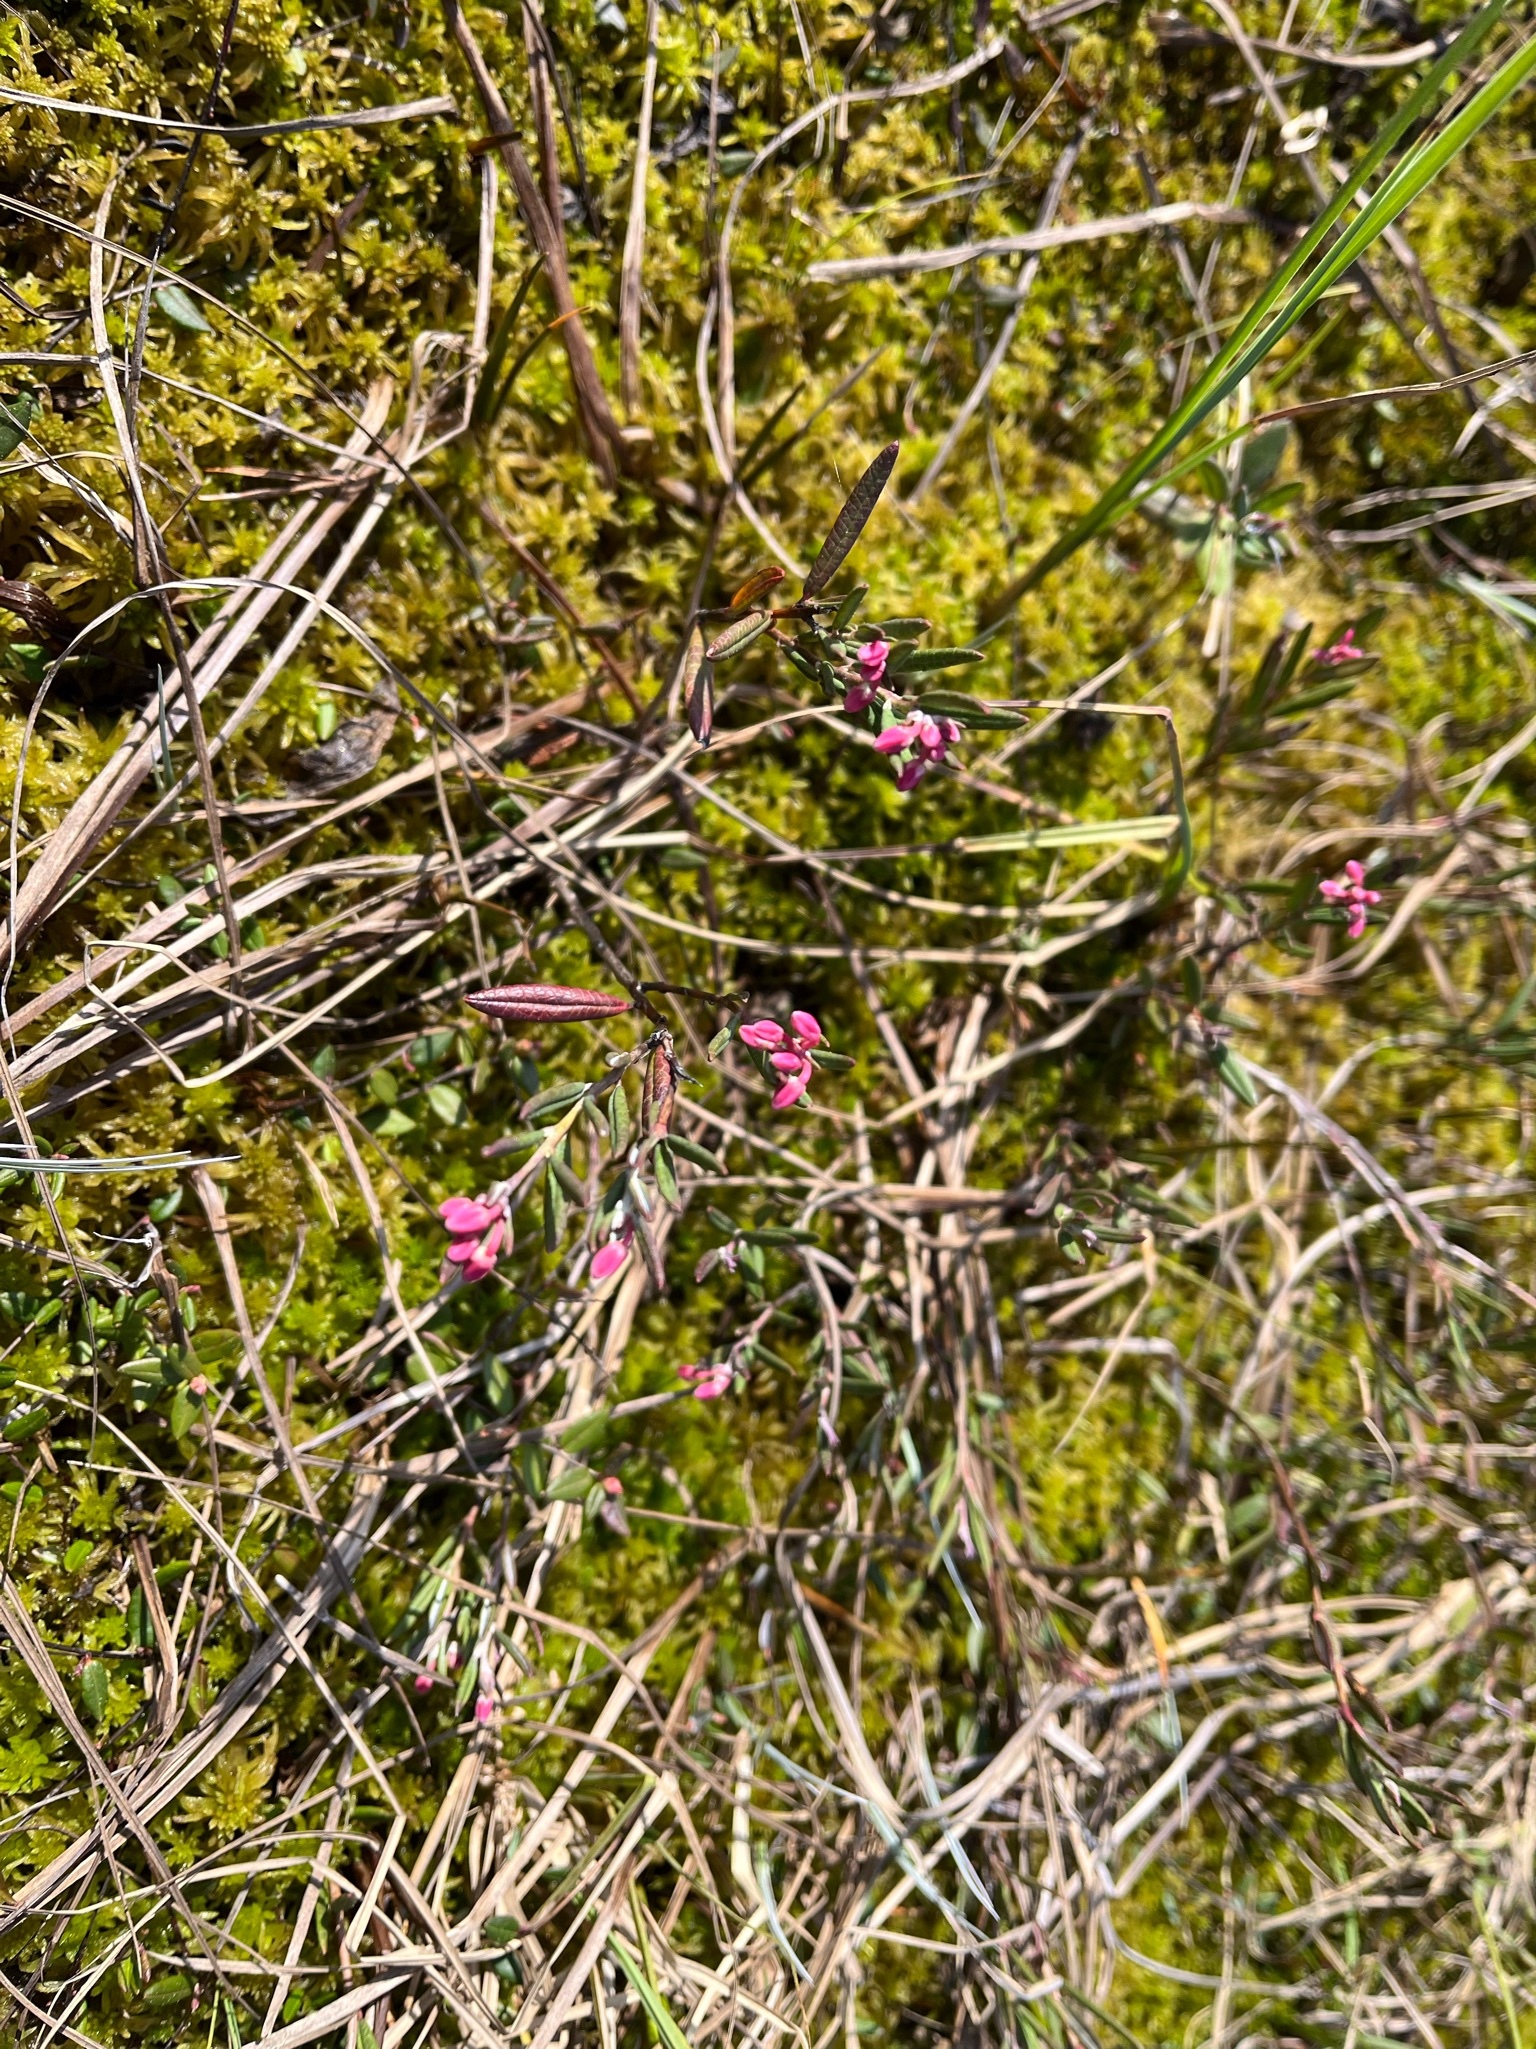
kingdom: Plantae
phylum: Tracheophyta
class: Magnoliopsida
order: Ericales
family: Ericaceae
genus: Andromeda
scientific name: Andromeda polifolia
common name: Bog-rosemary
